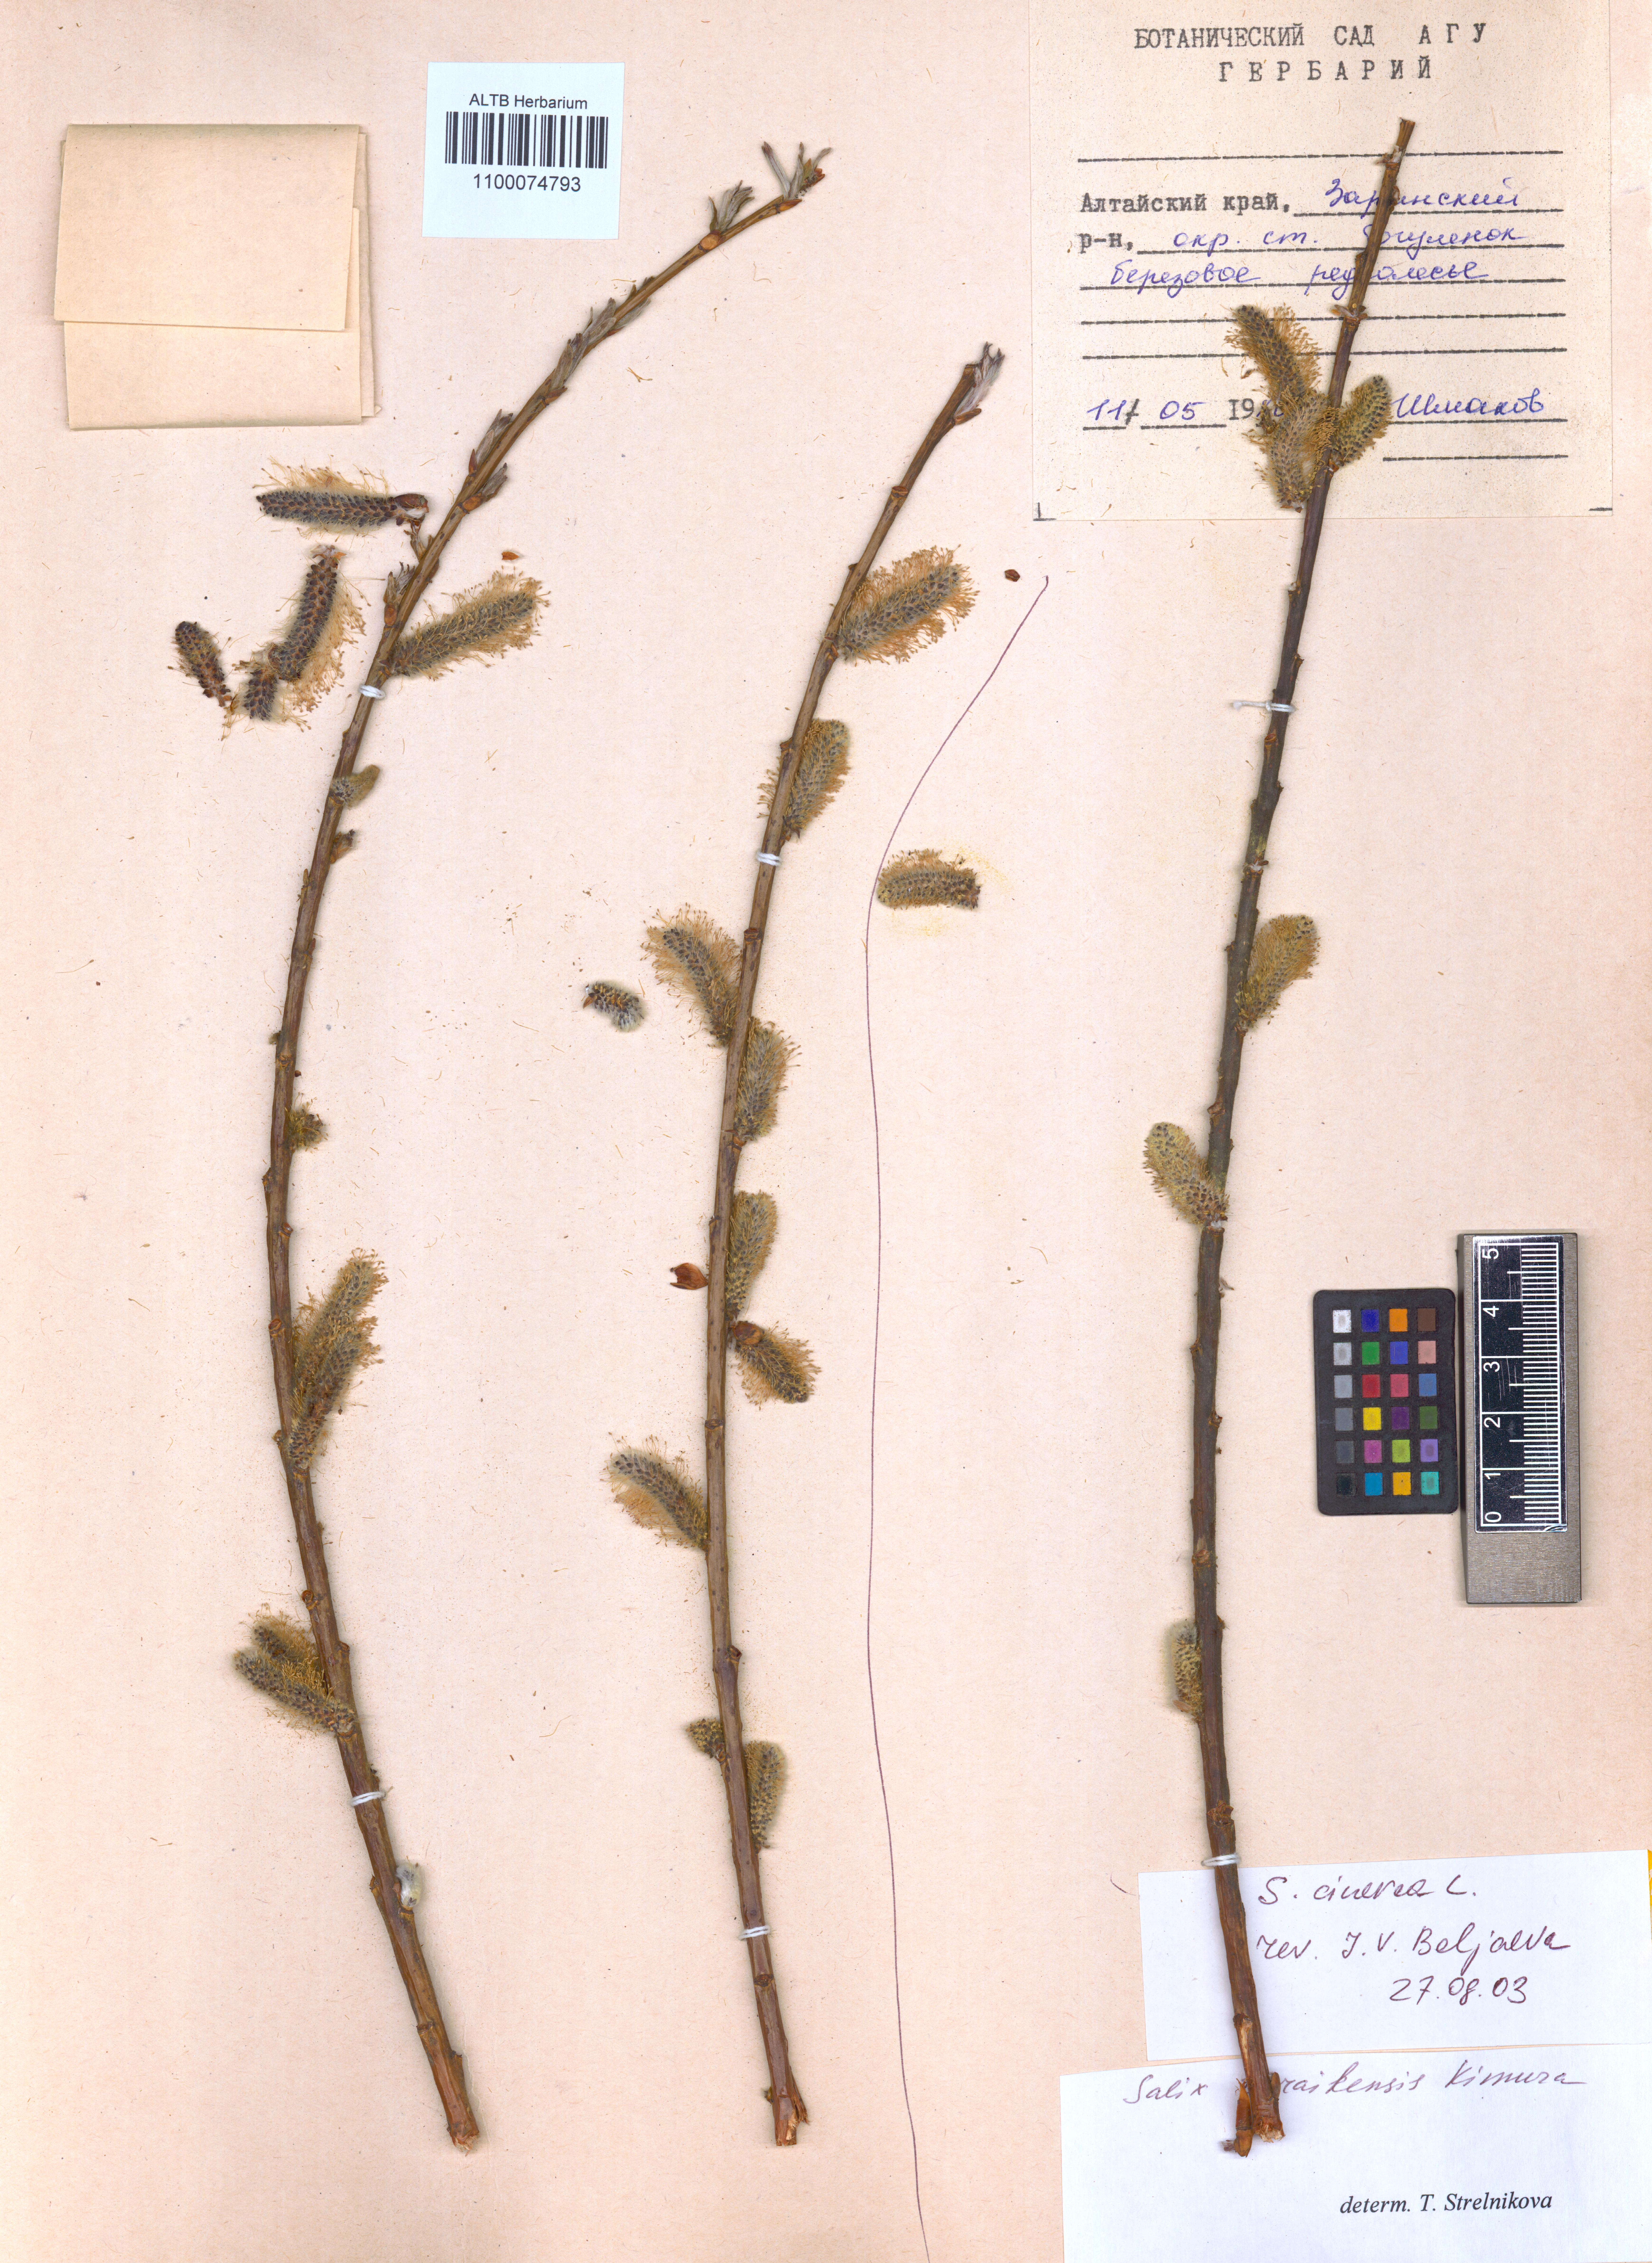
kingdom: Plantae
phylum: Tracheophyta
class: Magnoliopsida
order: Malpighiales
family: Salicaceae
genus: Salix
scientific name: Salix cinerea
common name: Common sallow
